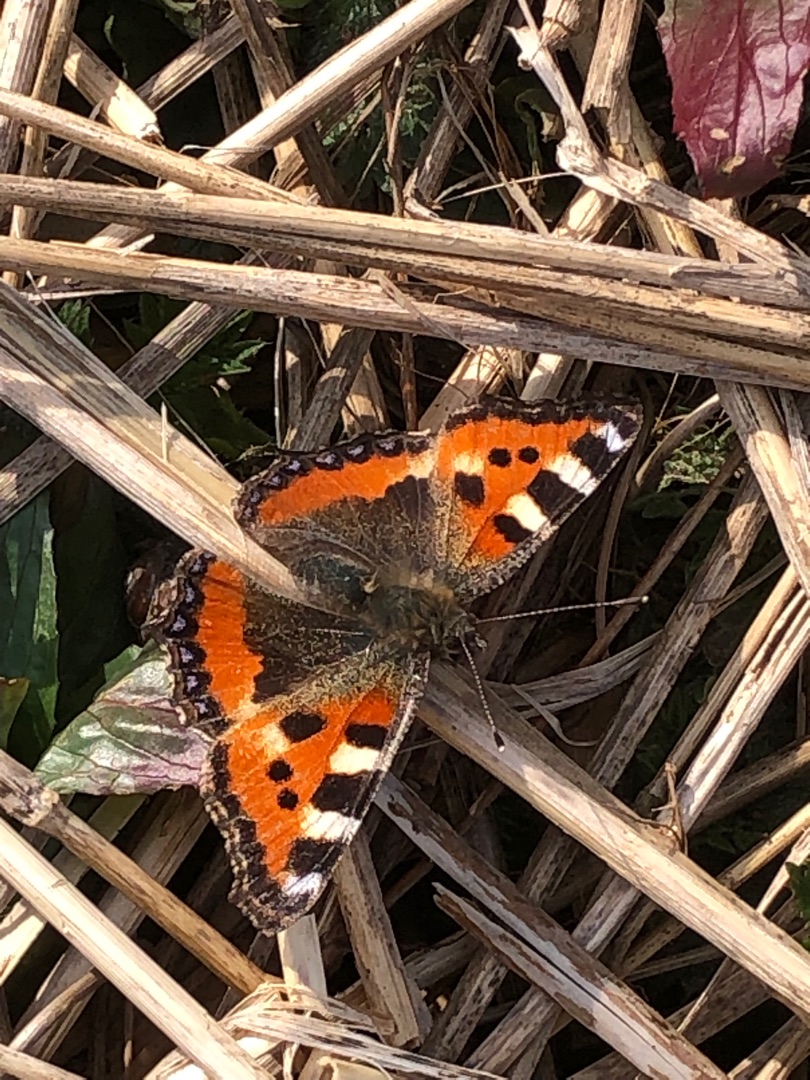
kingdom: Animalia
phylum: Arthropoda
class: Insecta
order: Lepidoptera
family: Nymphalidae
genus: Aglais
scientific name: Aglais urticae
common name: Nældens takvinge
